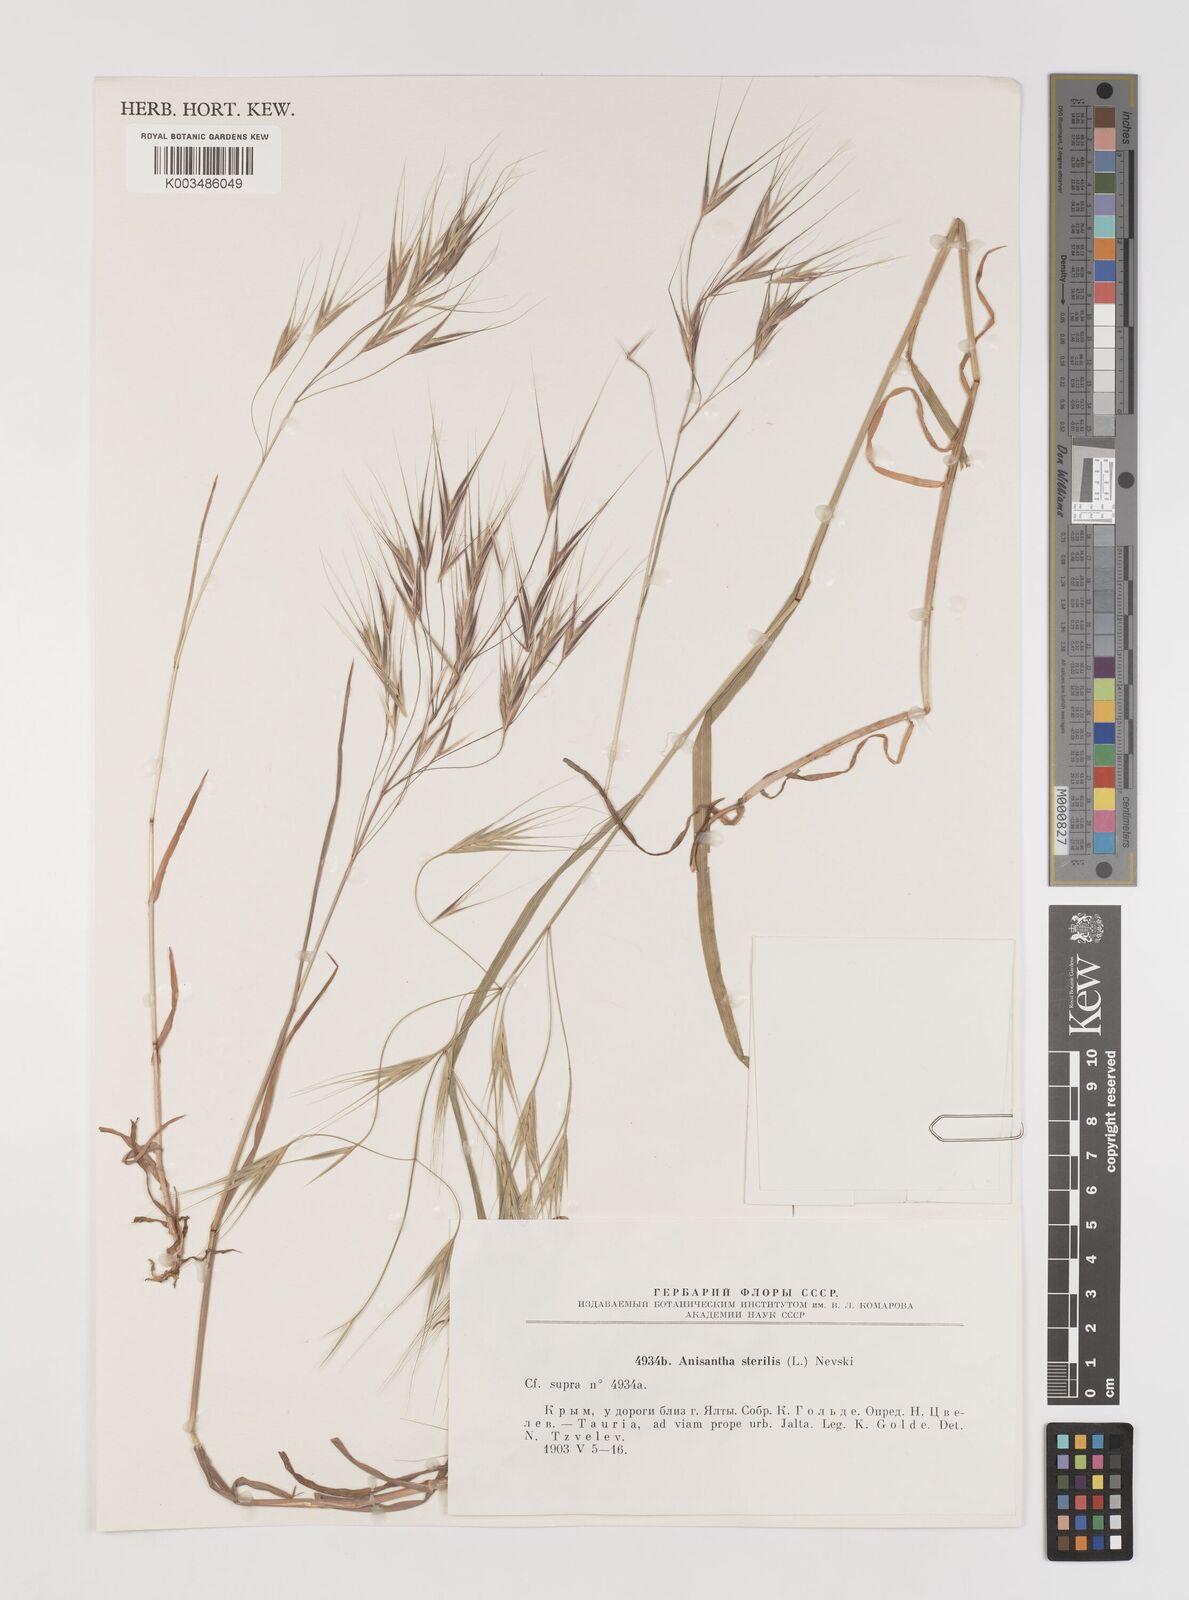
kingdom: Plantae
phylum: Tracheophyta
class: Liliopsida
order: Poales
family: Poaceae
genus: Bromus
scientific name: Bromus sterilis
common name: Poverty brome
